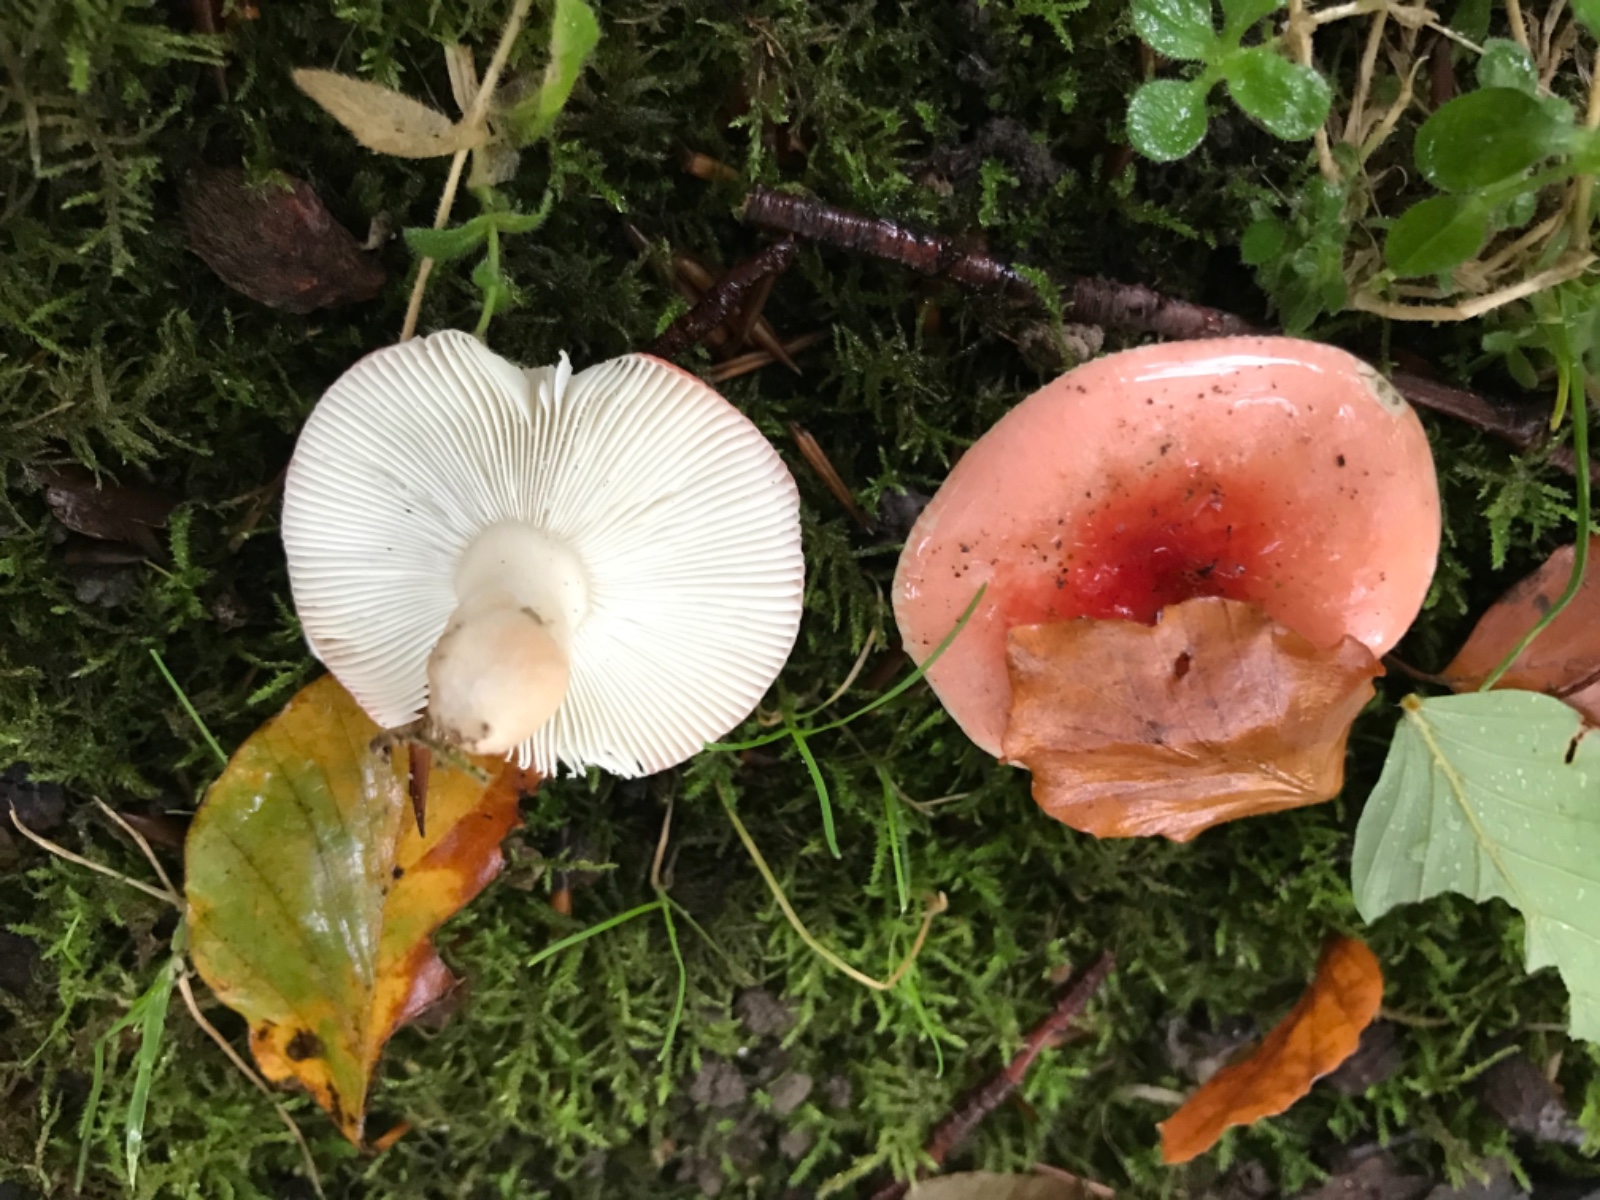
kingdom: Fungi
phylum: Basidiomycota
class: Agaricomycetes
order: Russulales
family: Russulaceae
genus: Russula
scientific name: Russula nobilis
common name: lille gift-skørhat
